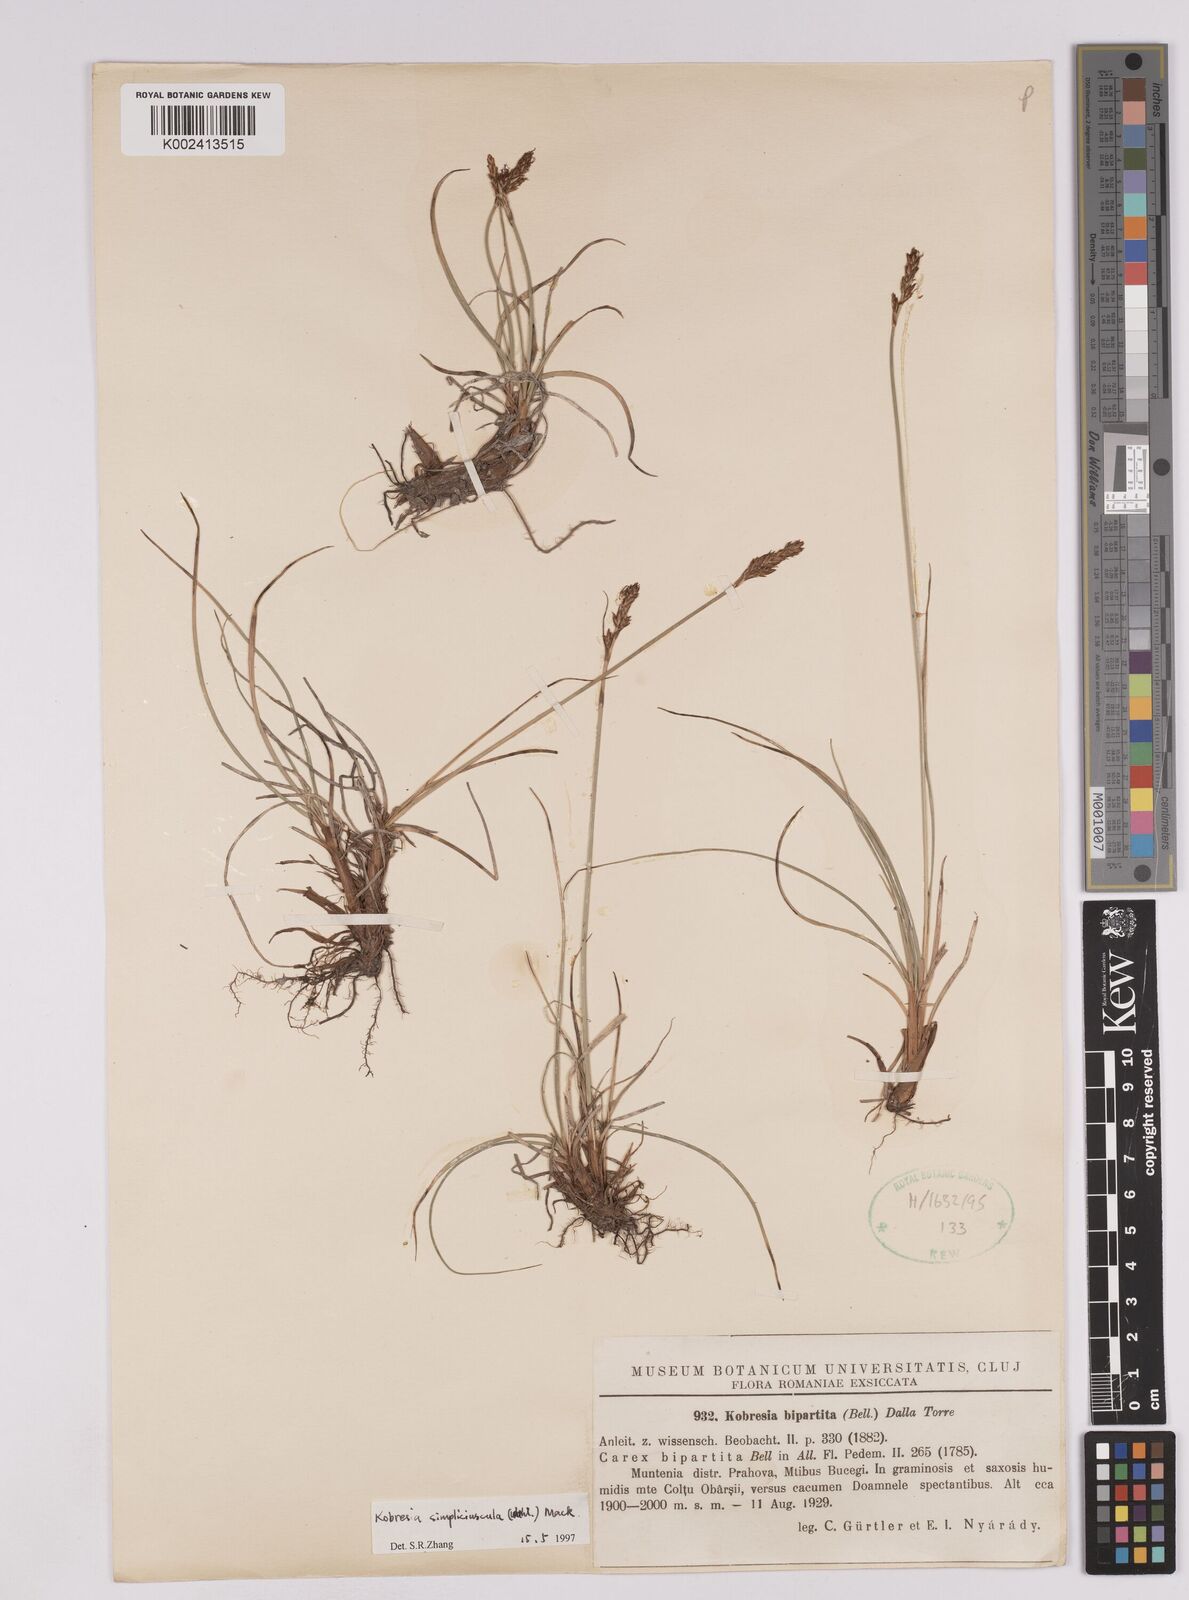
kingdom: Plantae
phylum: Tracheophyta
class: Liliopsida
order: Poales
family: Cyperaceae
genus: Carex
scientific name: Carex simpliciuscula
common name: Simple bog sedge
